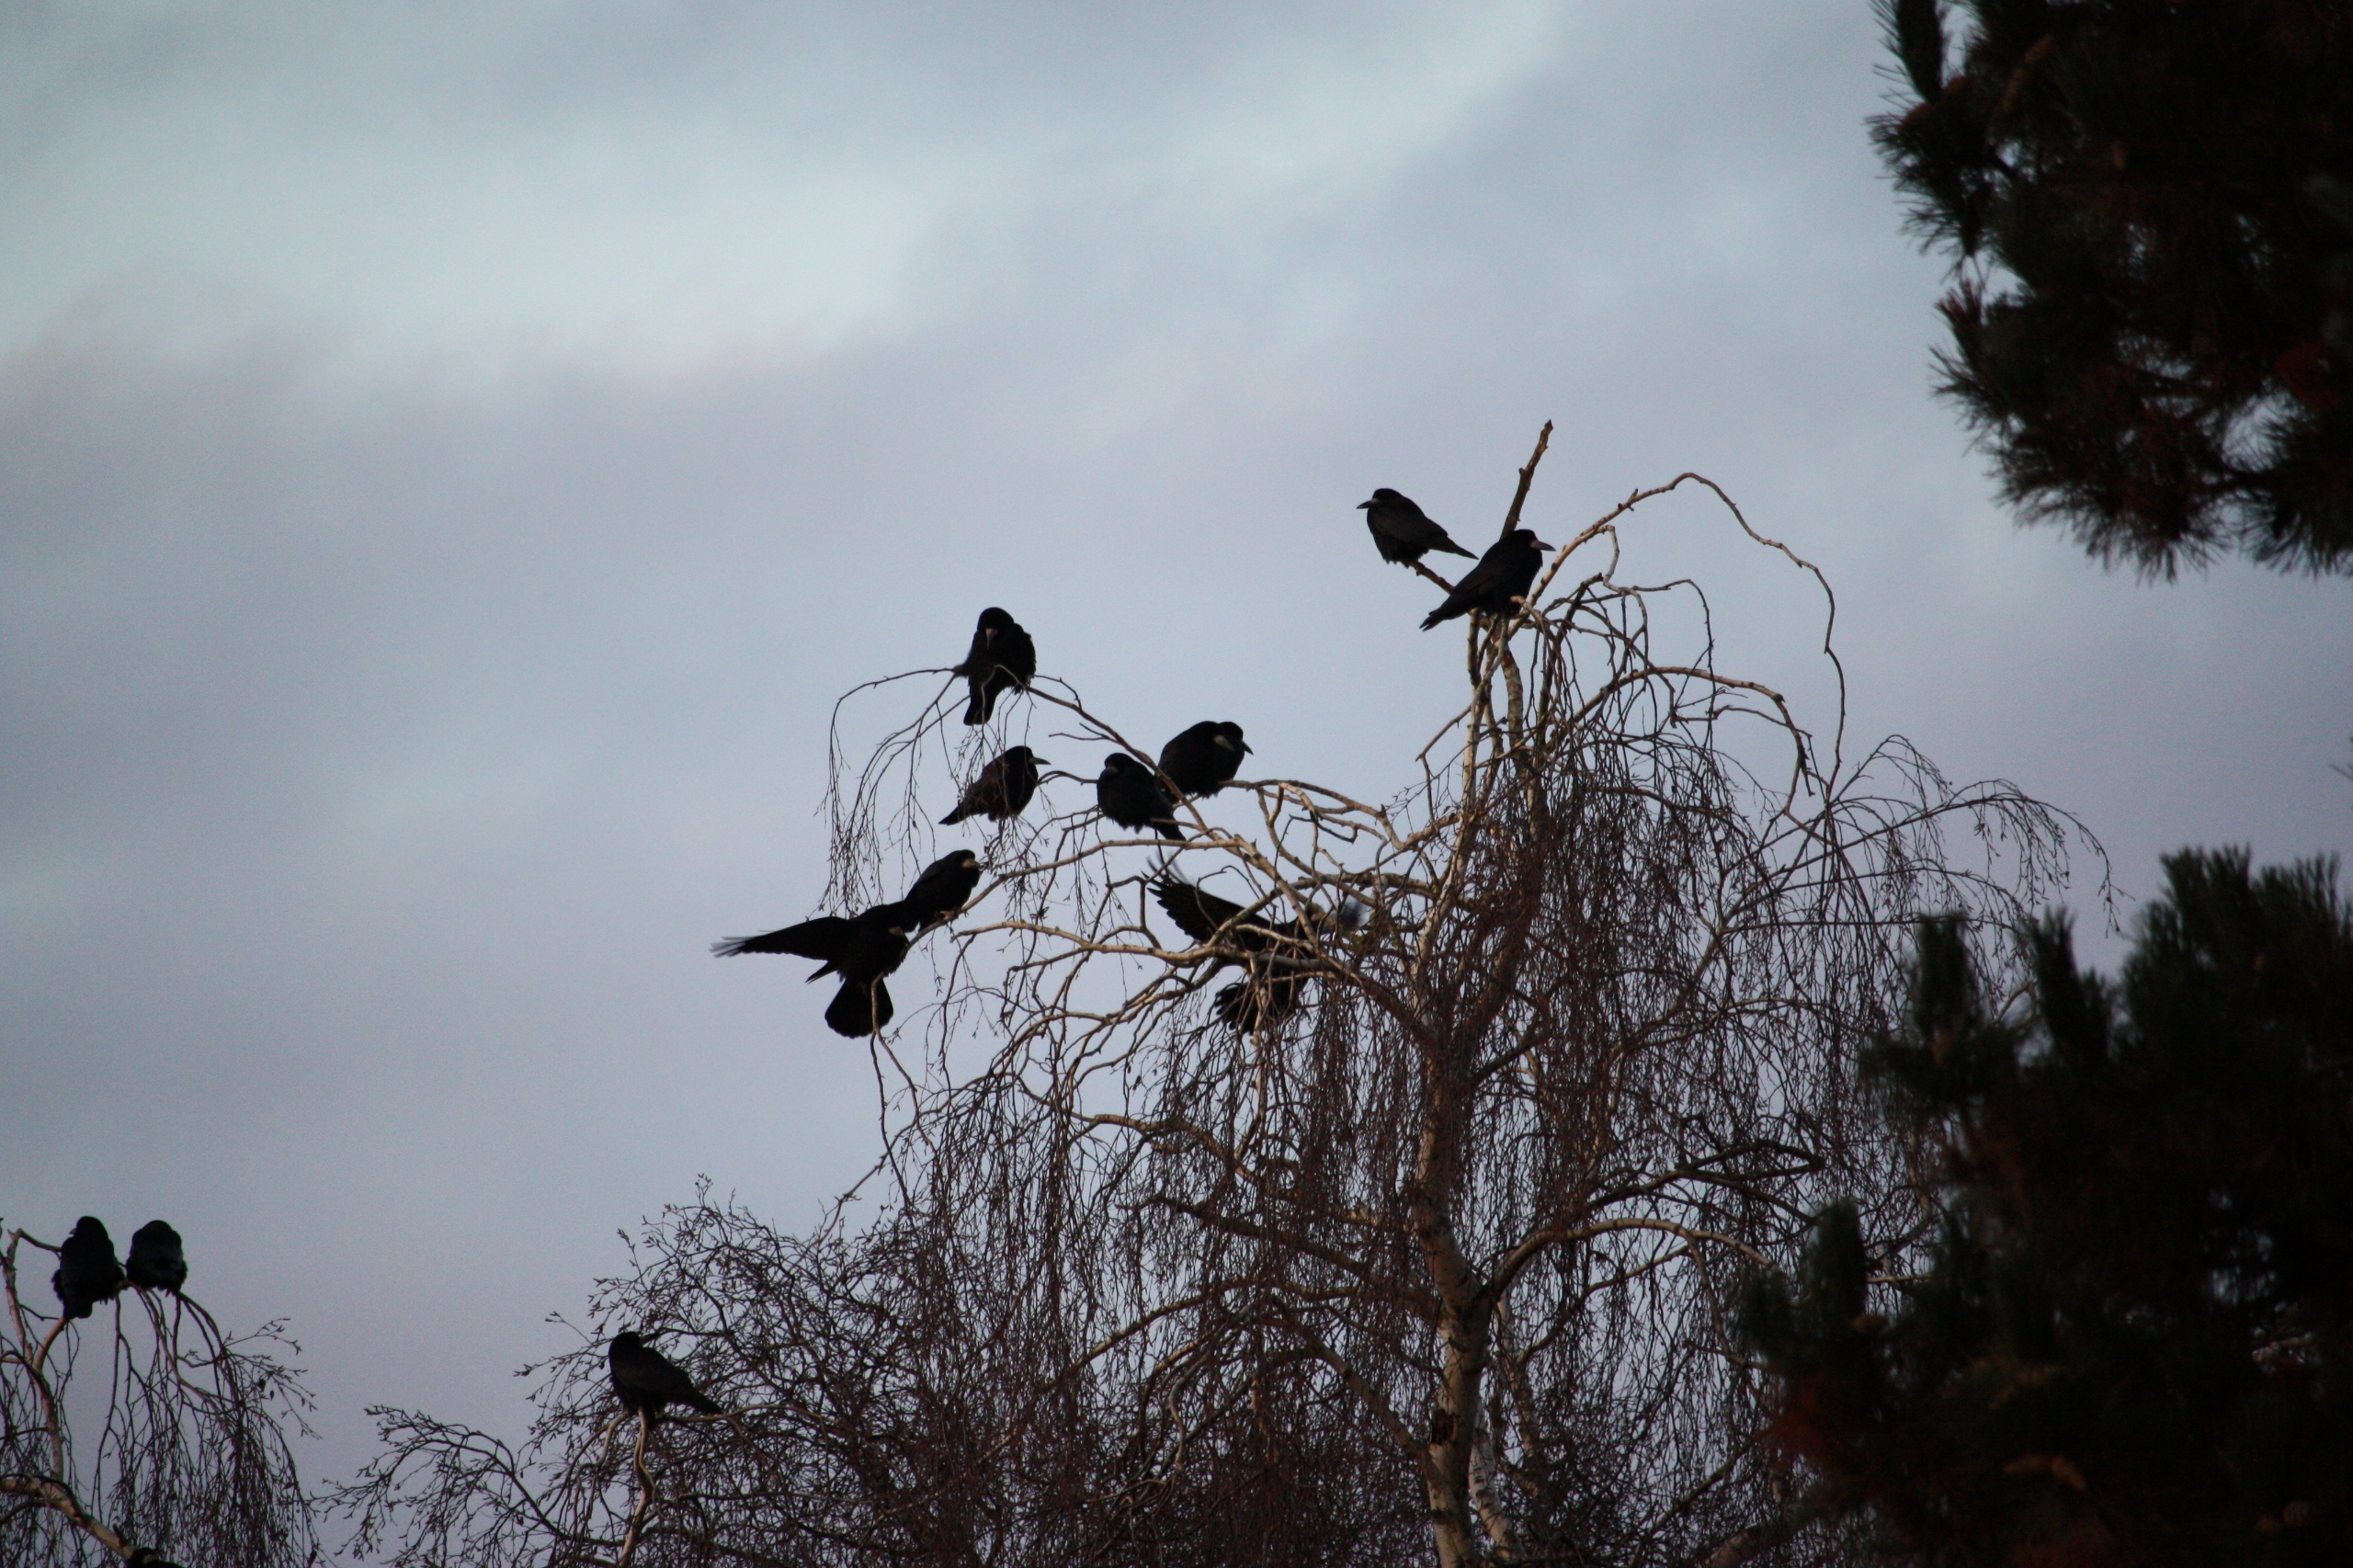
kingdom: Animalia
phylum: Chordata
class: Aves
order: Passeriformes
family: Corvidae
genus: Corvus
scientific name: Corvus frugilegus
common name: Råge
